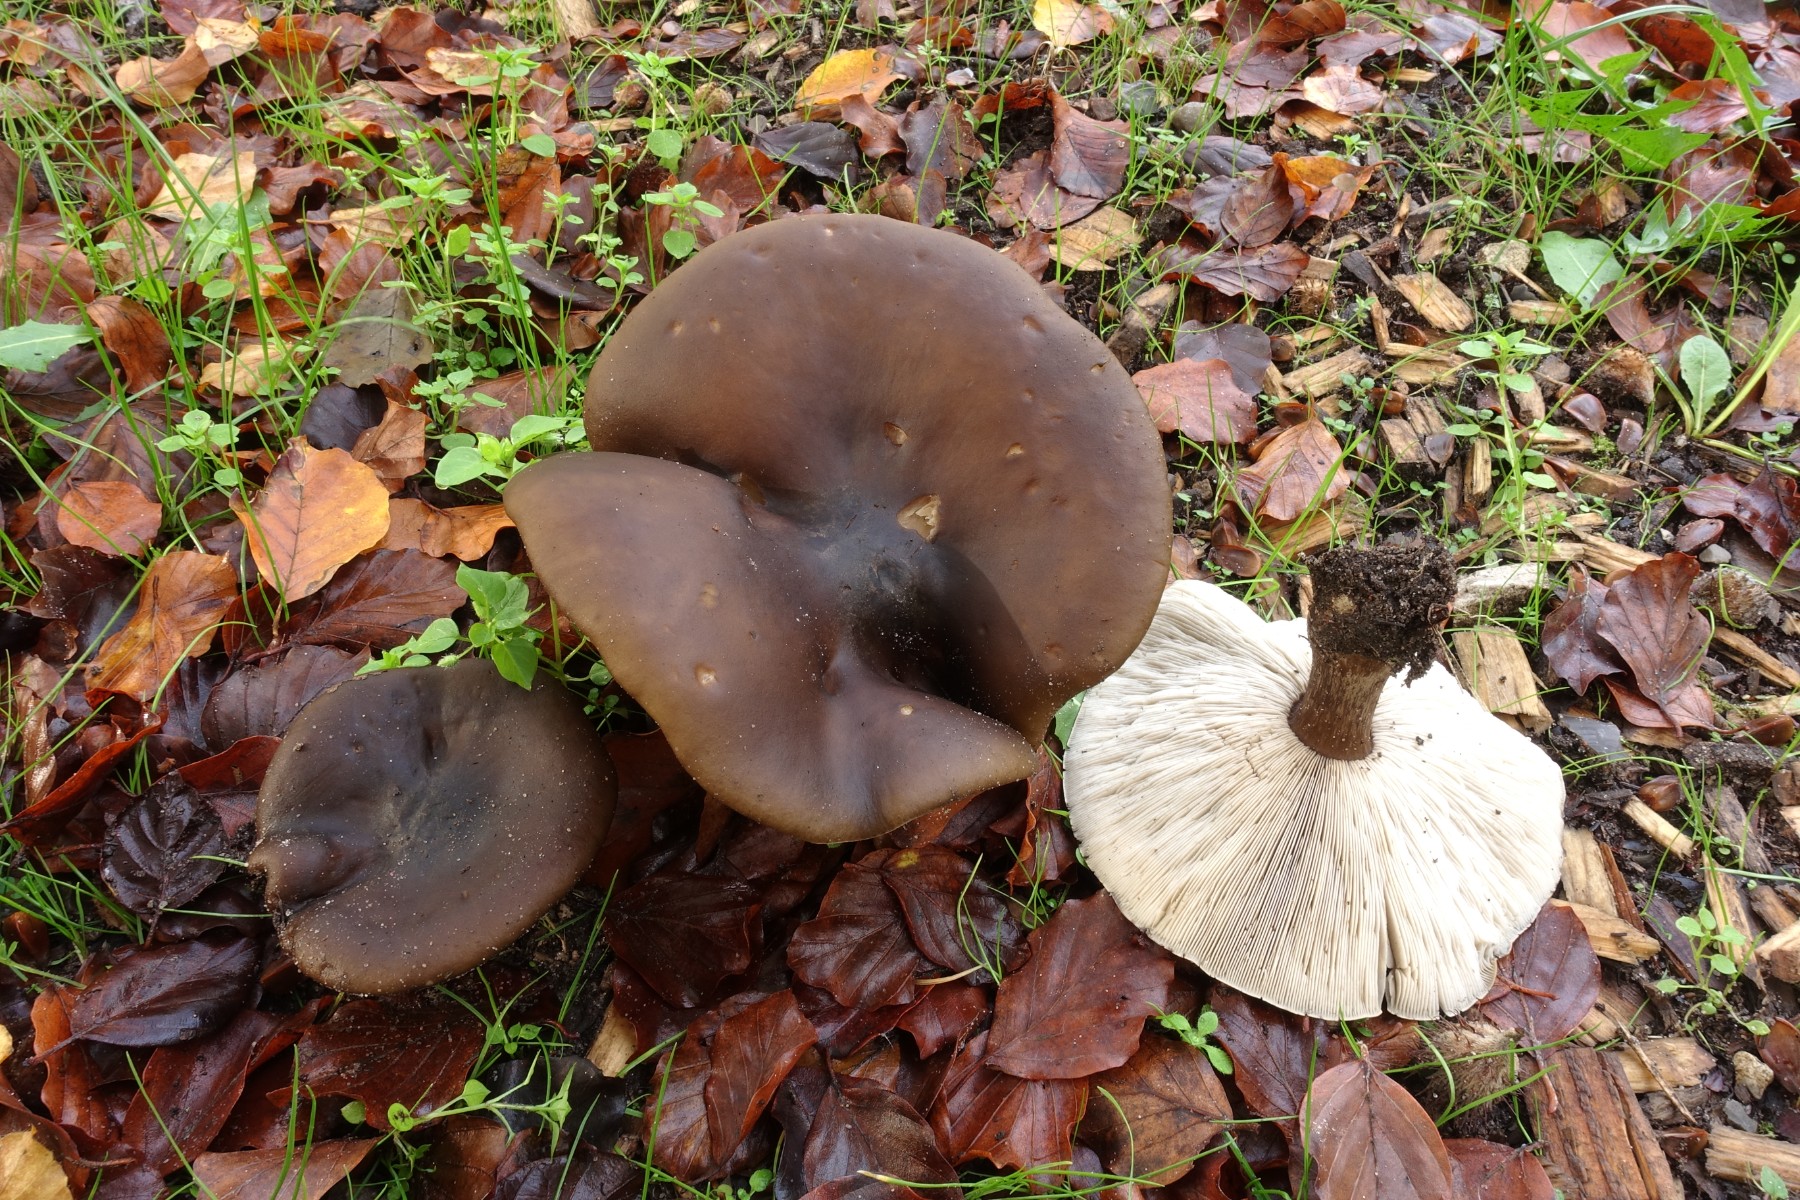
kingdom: Fungi
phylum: Basidiomycota
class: Agaricomycetes
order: Agaricales
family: Tricholomataceae
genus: Melanoleuca
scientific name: Melanoleuca
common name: munkehat
